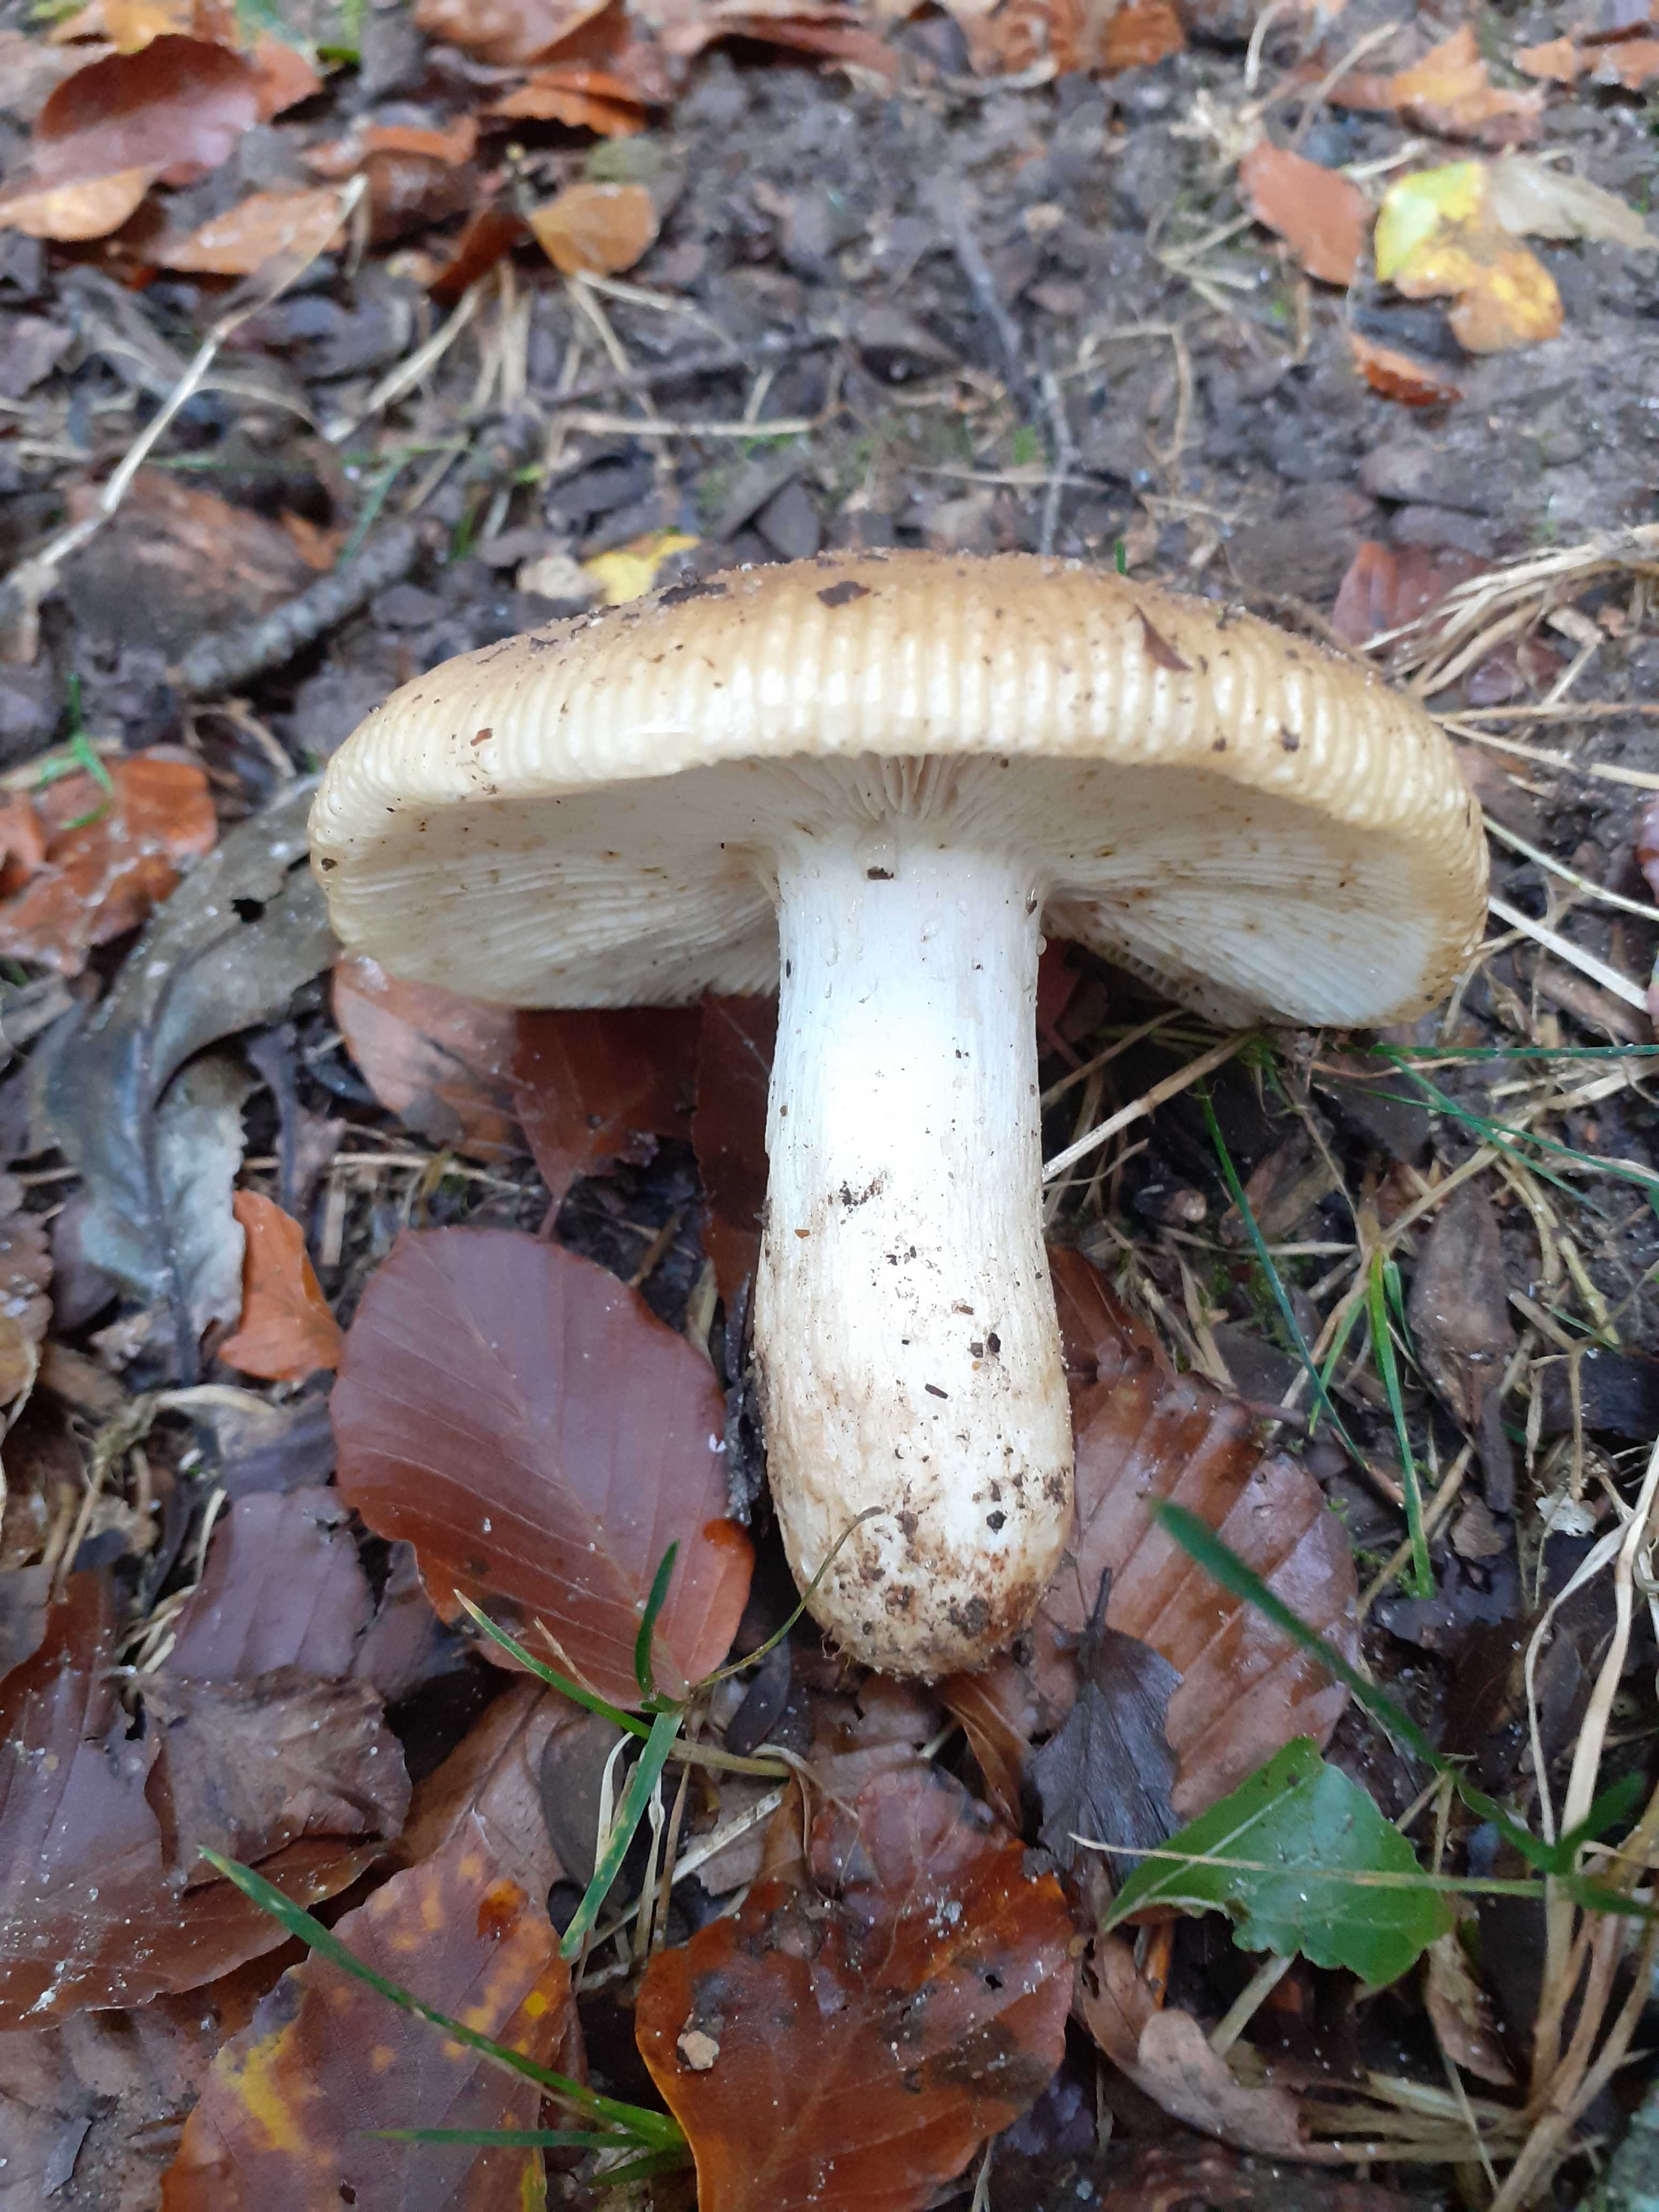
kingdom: Fungi
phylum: Basidiomycota
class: Agaricomycetes
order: Russulales
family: Russulaceae
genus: Russula
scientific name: Russula foetens
